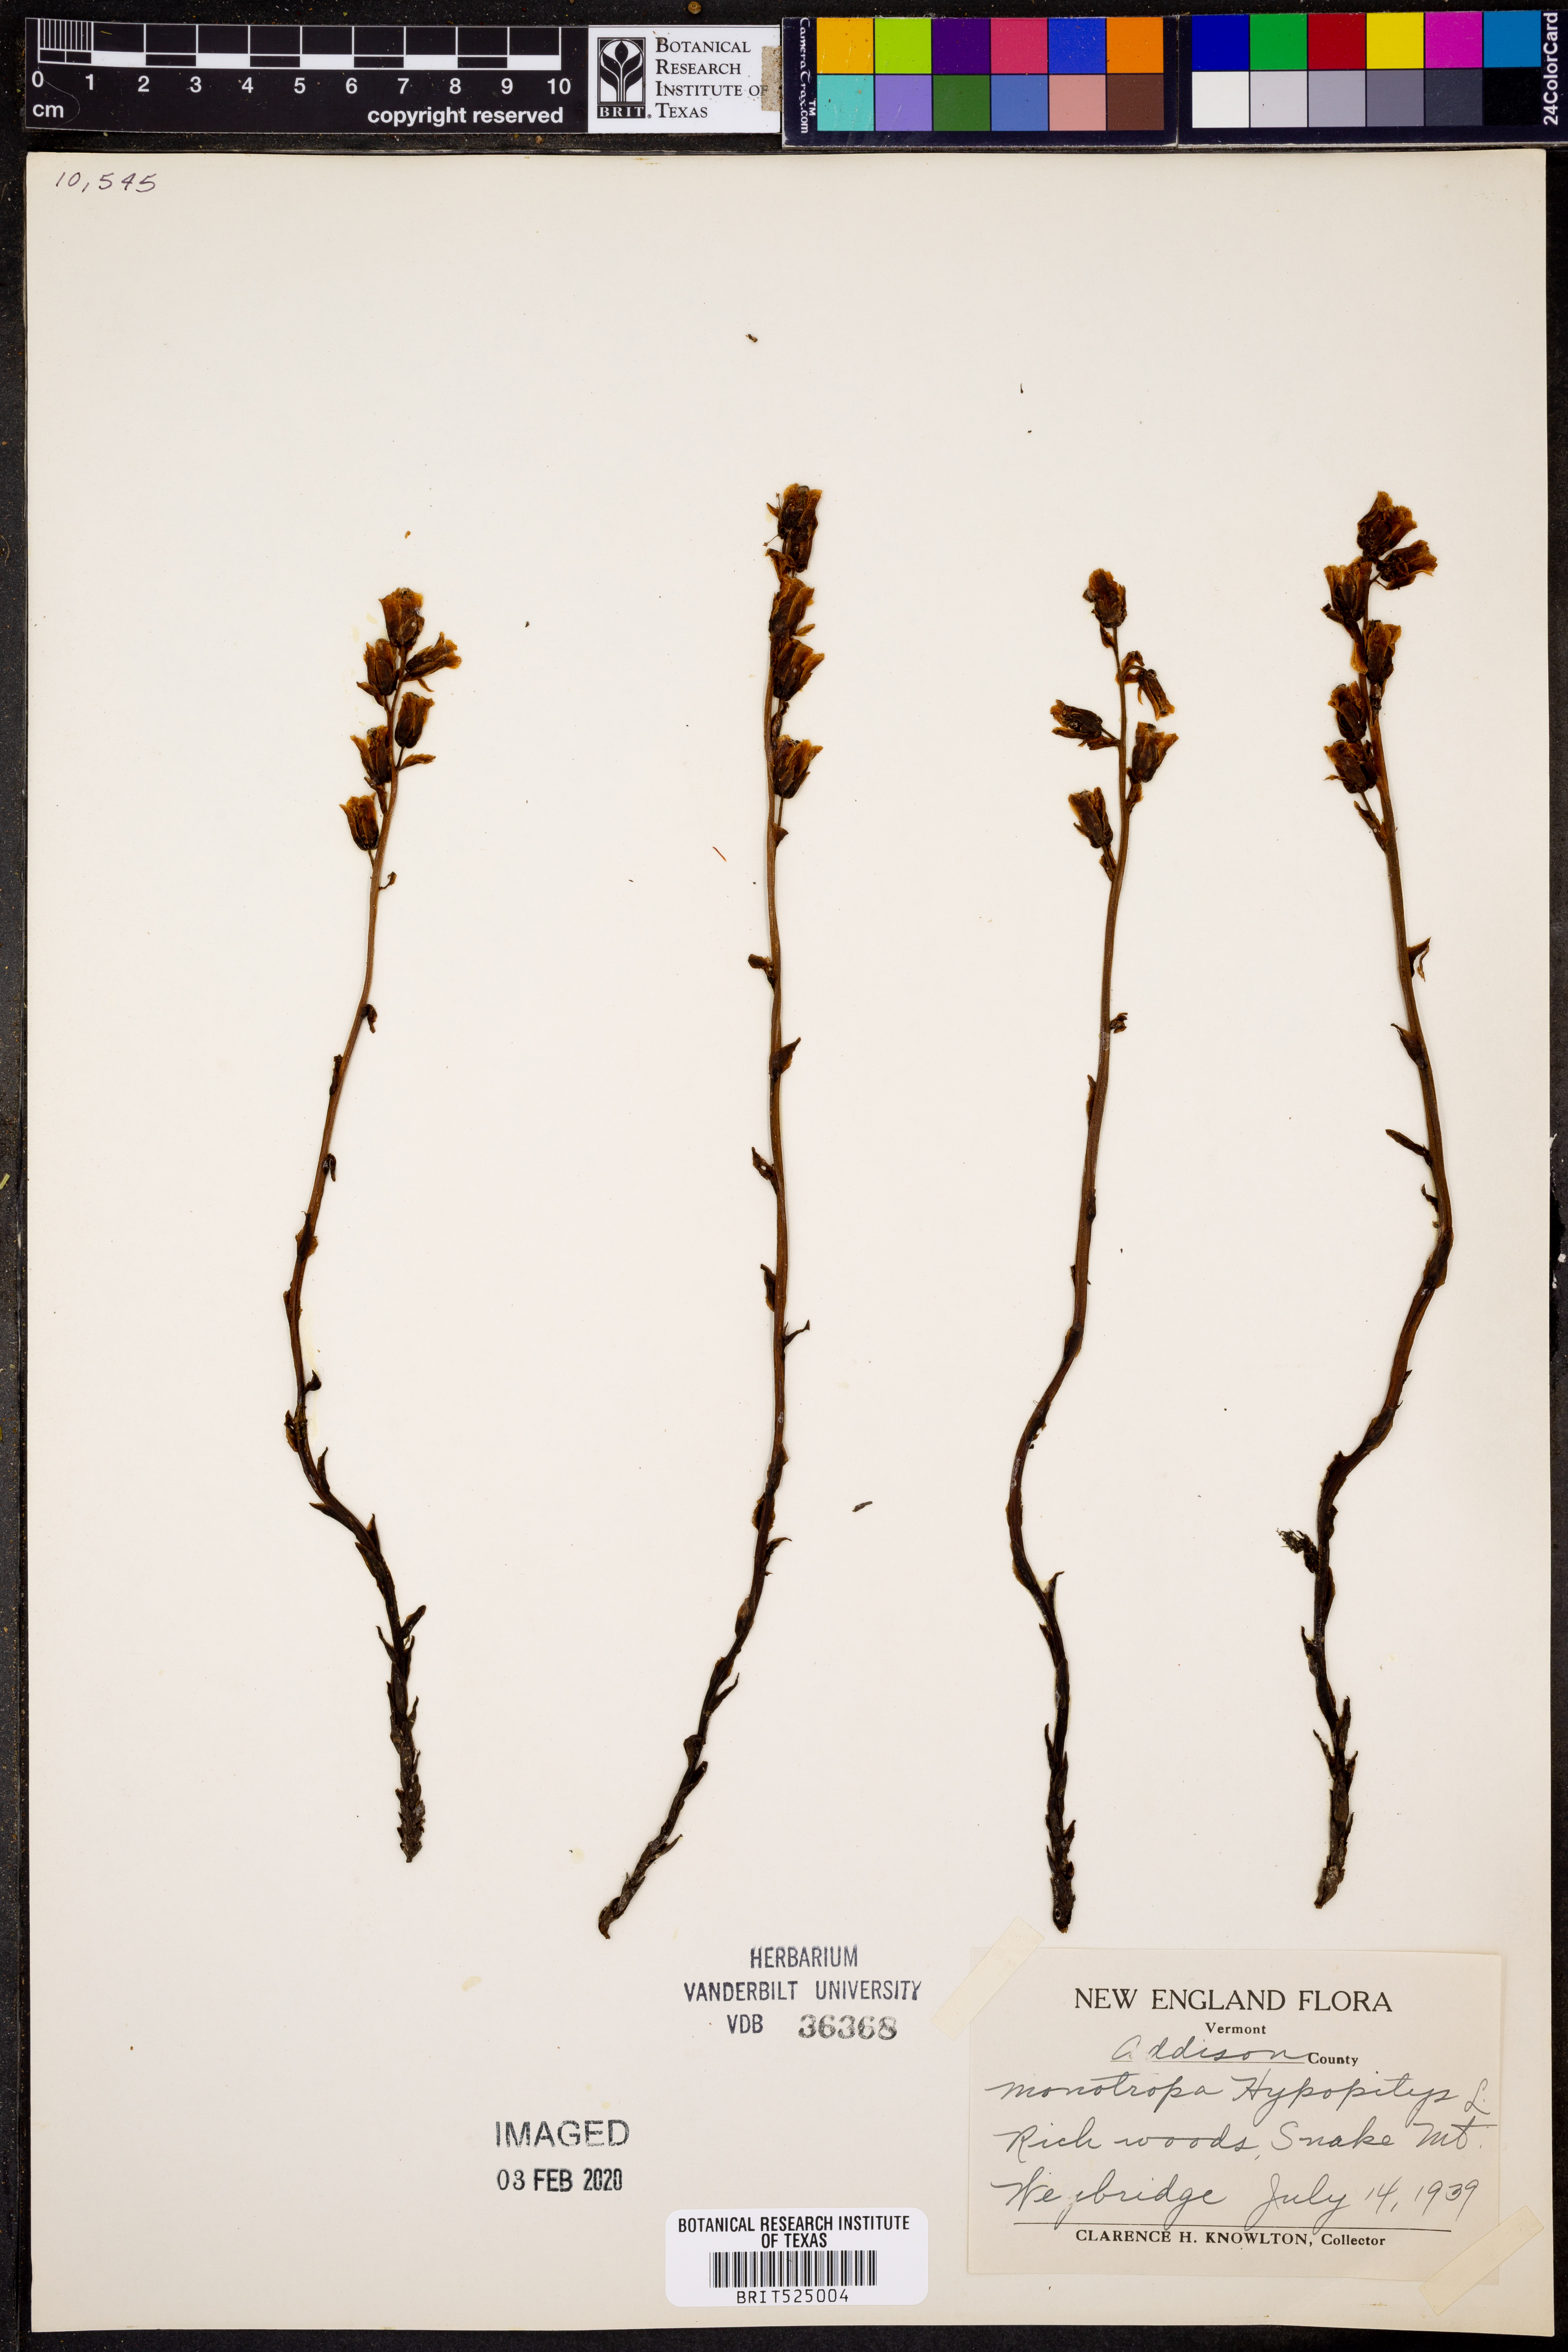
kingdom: Plantae
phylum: Tracheophyta
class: Magnoliopsida
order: Ericales
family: Ericaceae
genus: Hypopitys
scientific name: Hypopitys monotropa
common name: Yellow bird's-nest
